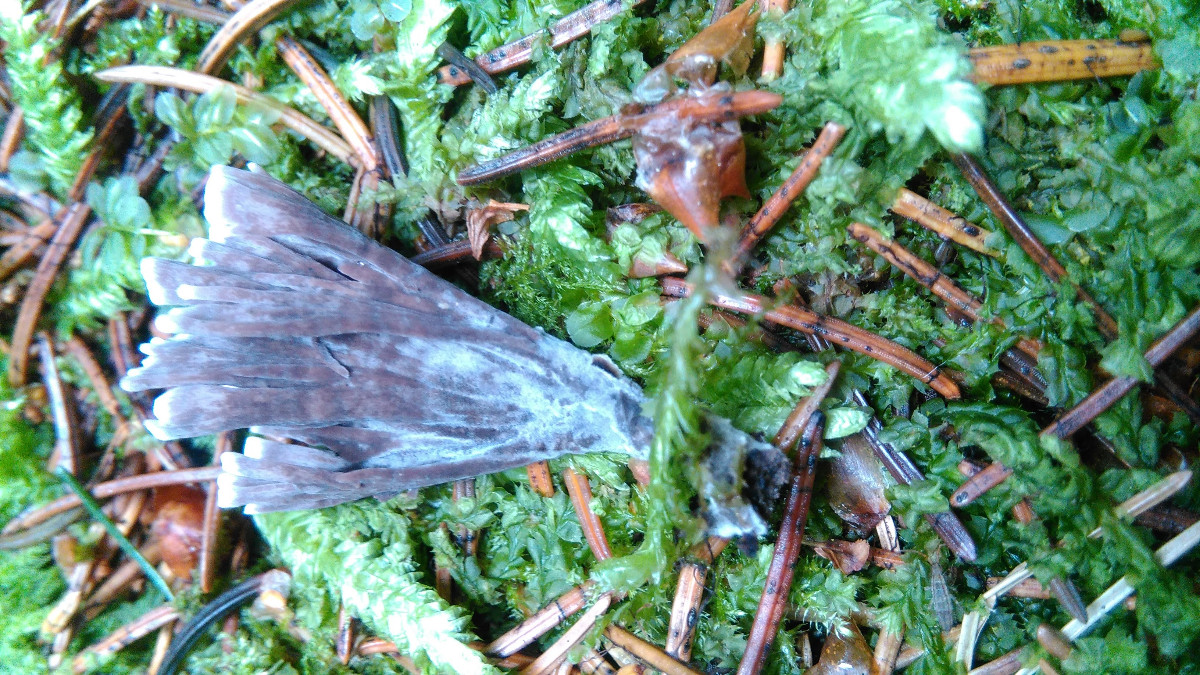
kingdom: Fungi
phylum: Basidiomycota
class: Agaricomycetes
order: Thelephorales
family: Thelephoraceae
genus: Thelephora
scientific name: Thelephora palmata
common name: grenet frynsesvamp
